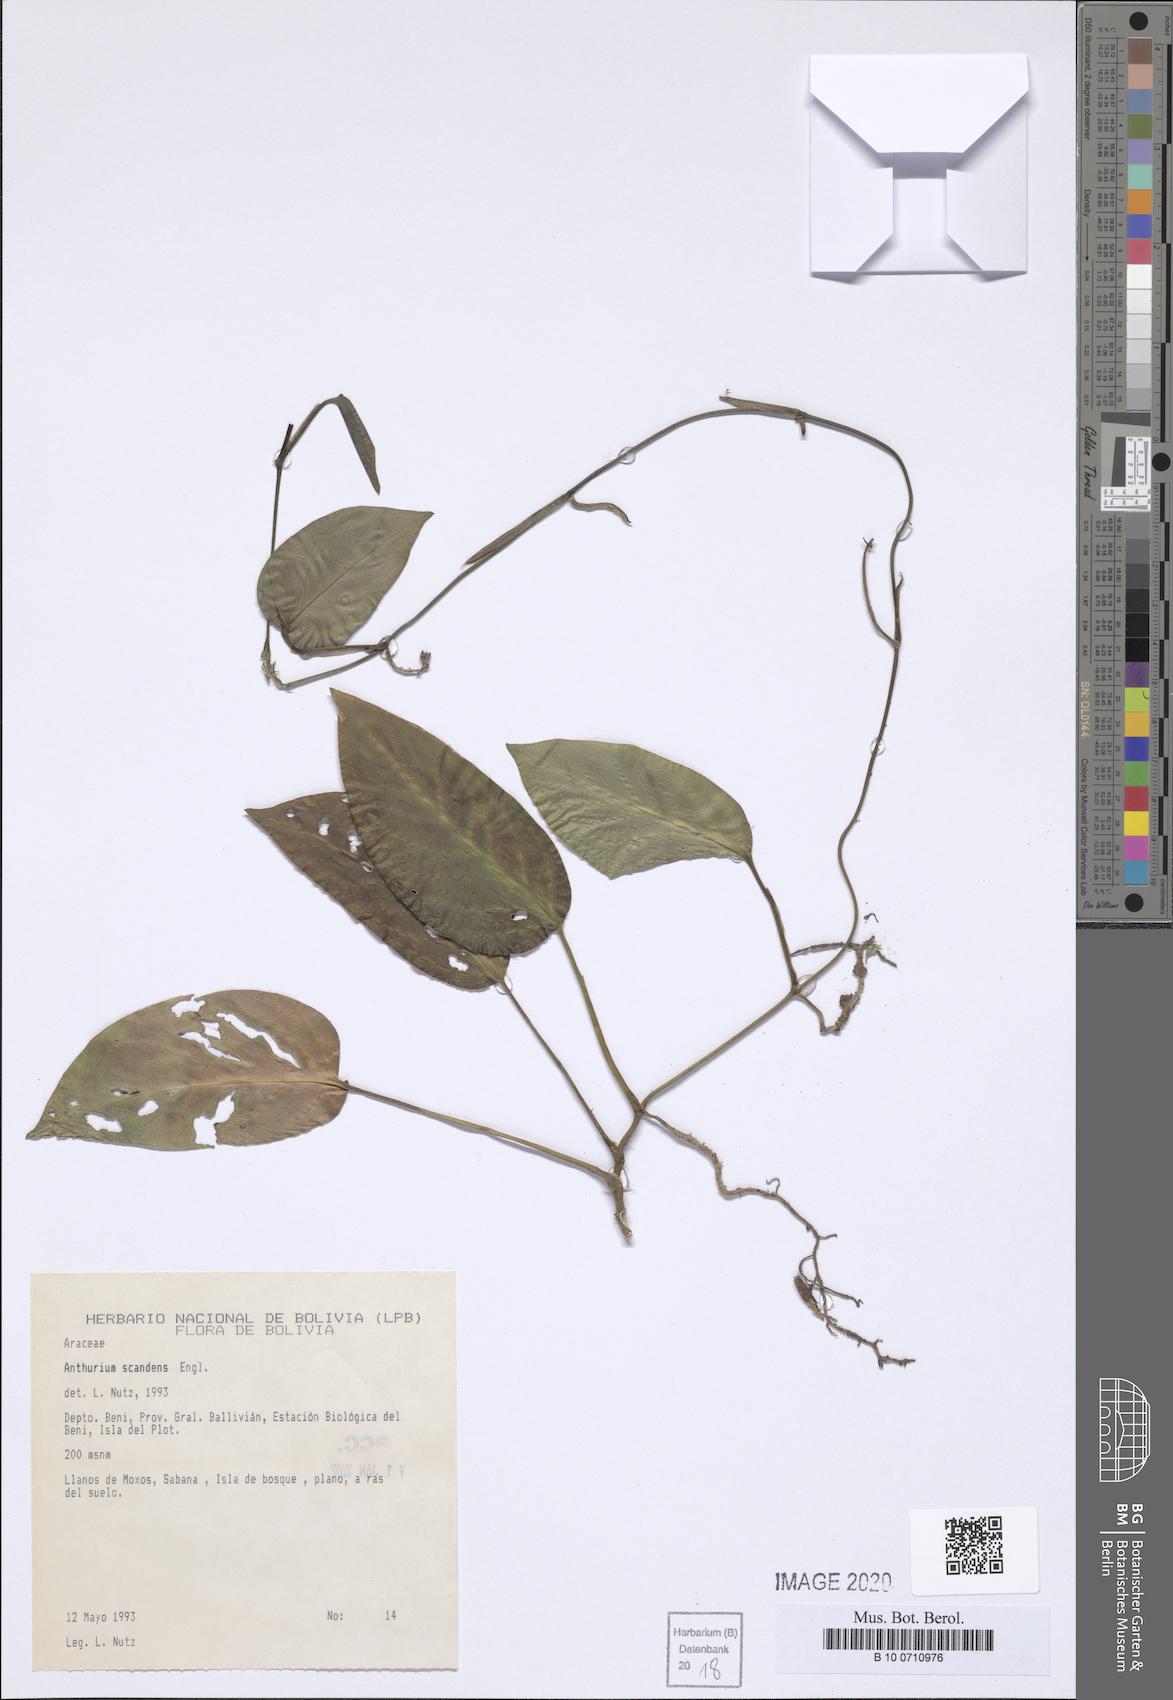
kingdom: Plantae
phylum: Tracheophyta
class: Liliopsida
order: Alismatales
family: Araceae
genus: Anthurium
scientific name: Anthurium scandens
